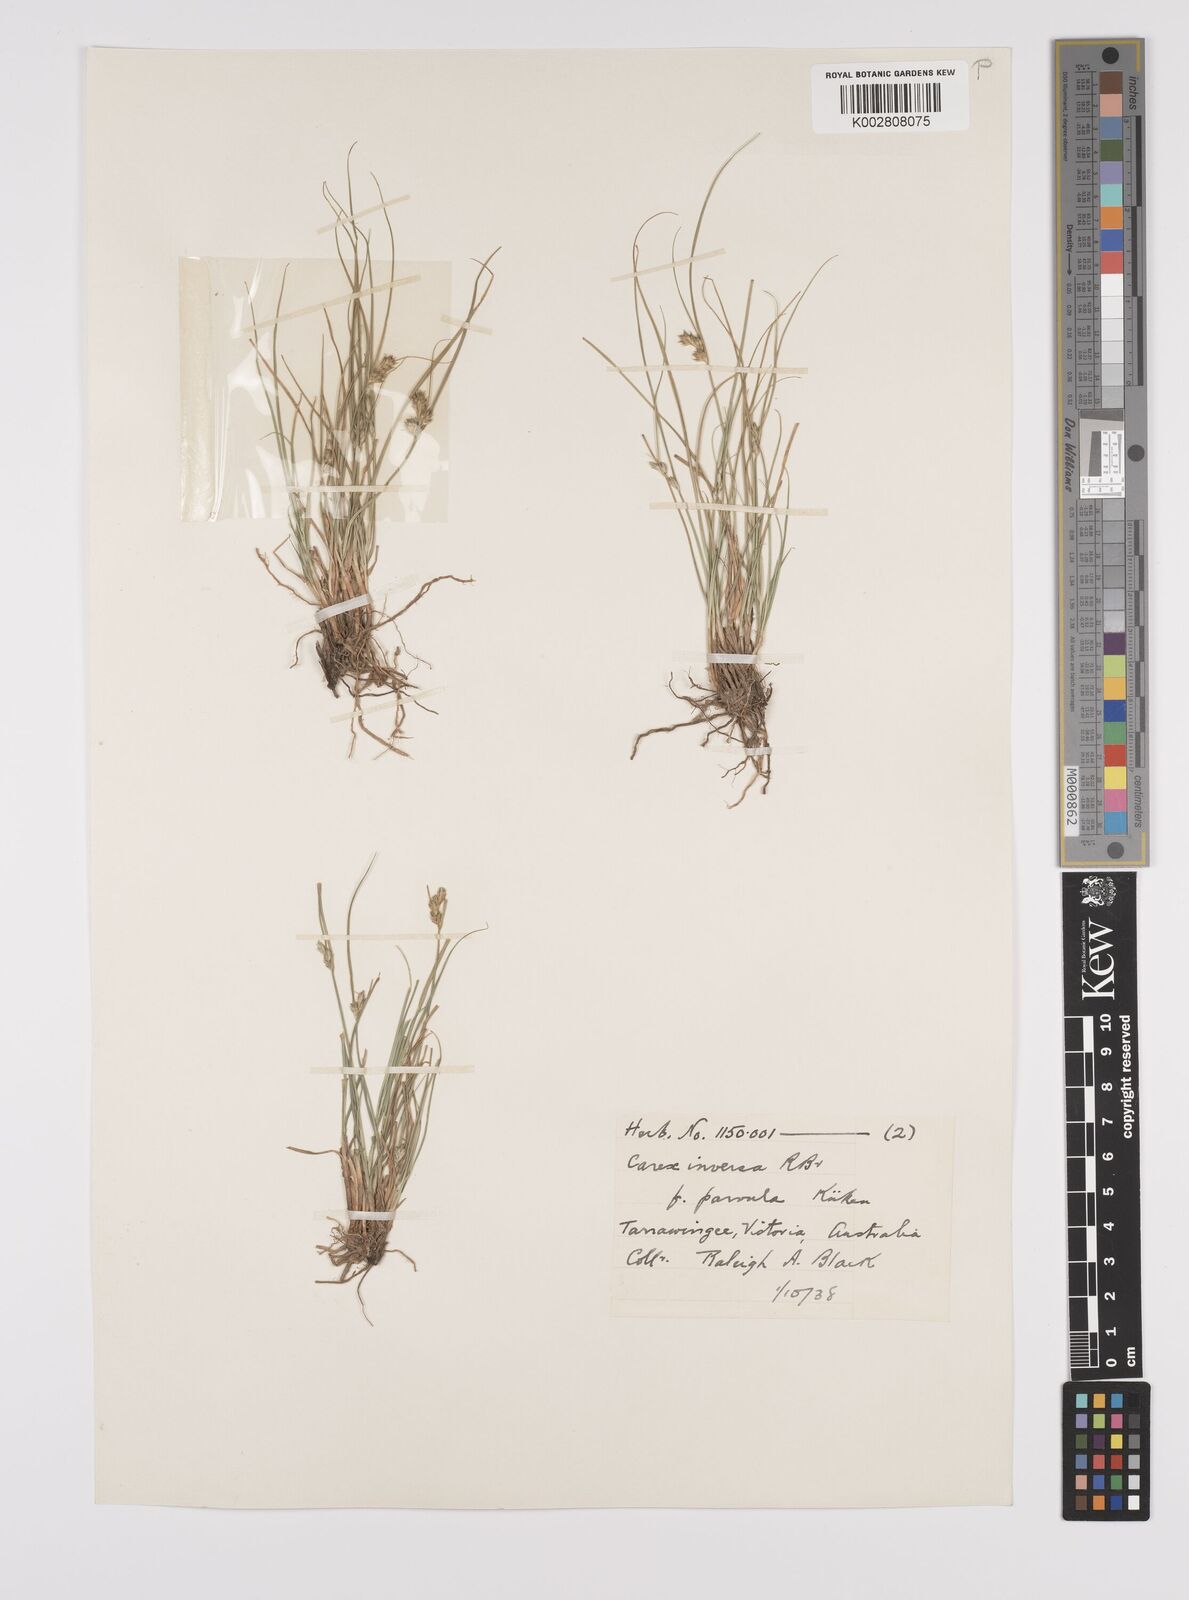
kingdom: Plantae
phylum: Tracheophyta
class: Liliopsida
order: Poales
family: Cyperaceae
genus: Carex
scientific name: Carex inversa
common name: Knob sedge
